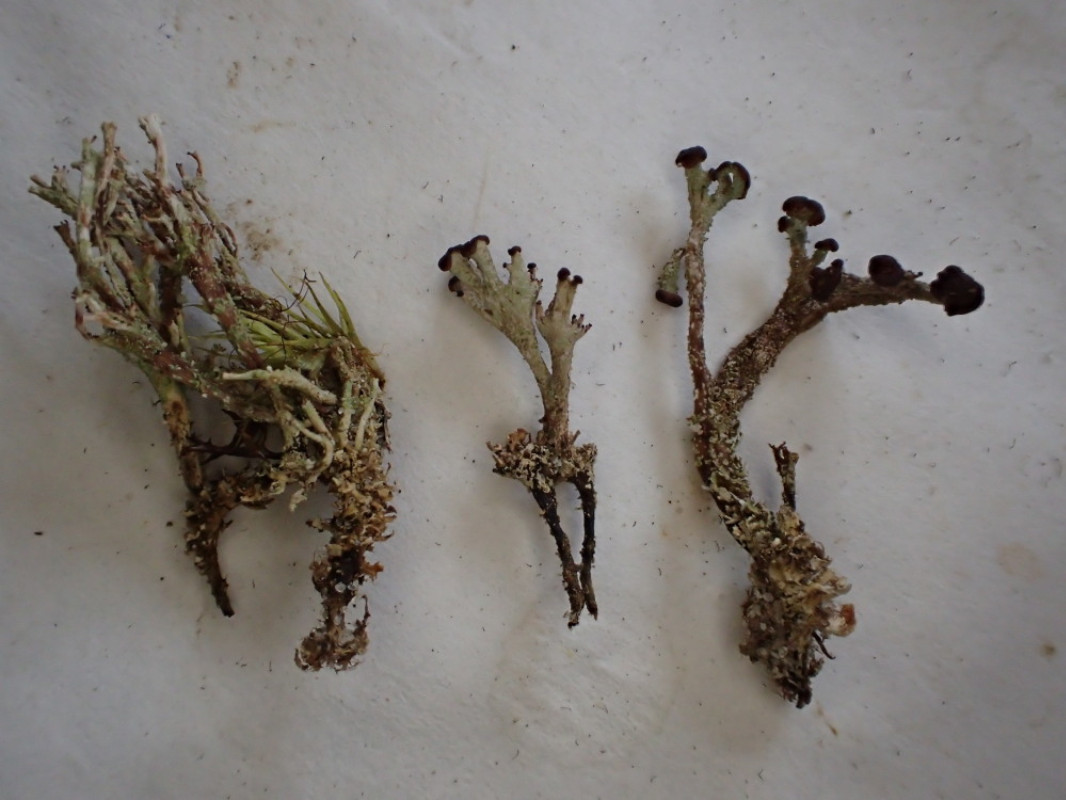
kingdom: Fungi
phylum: Ascomycota
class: Lecanoromycetes
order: Lecanorales
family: Cladoniaceae
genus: Cladonia
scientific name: Cladonia ramulosa
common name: kliddet bægerlav
